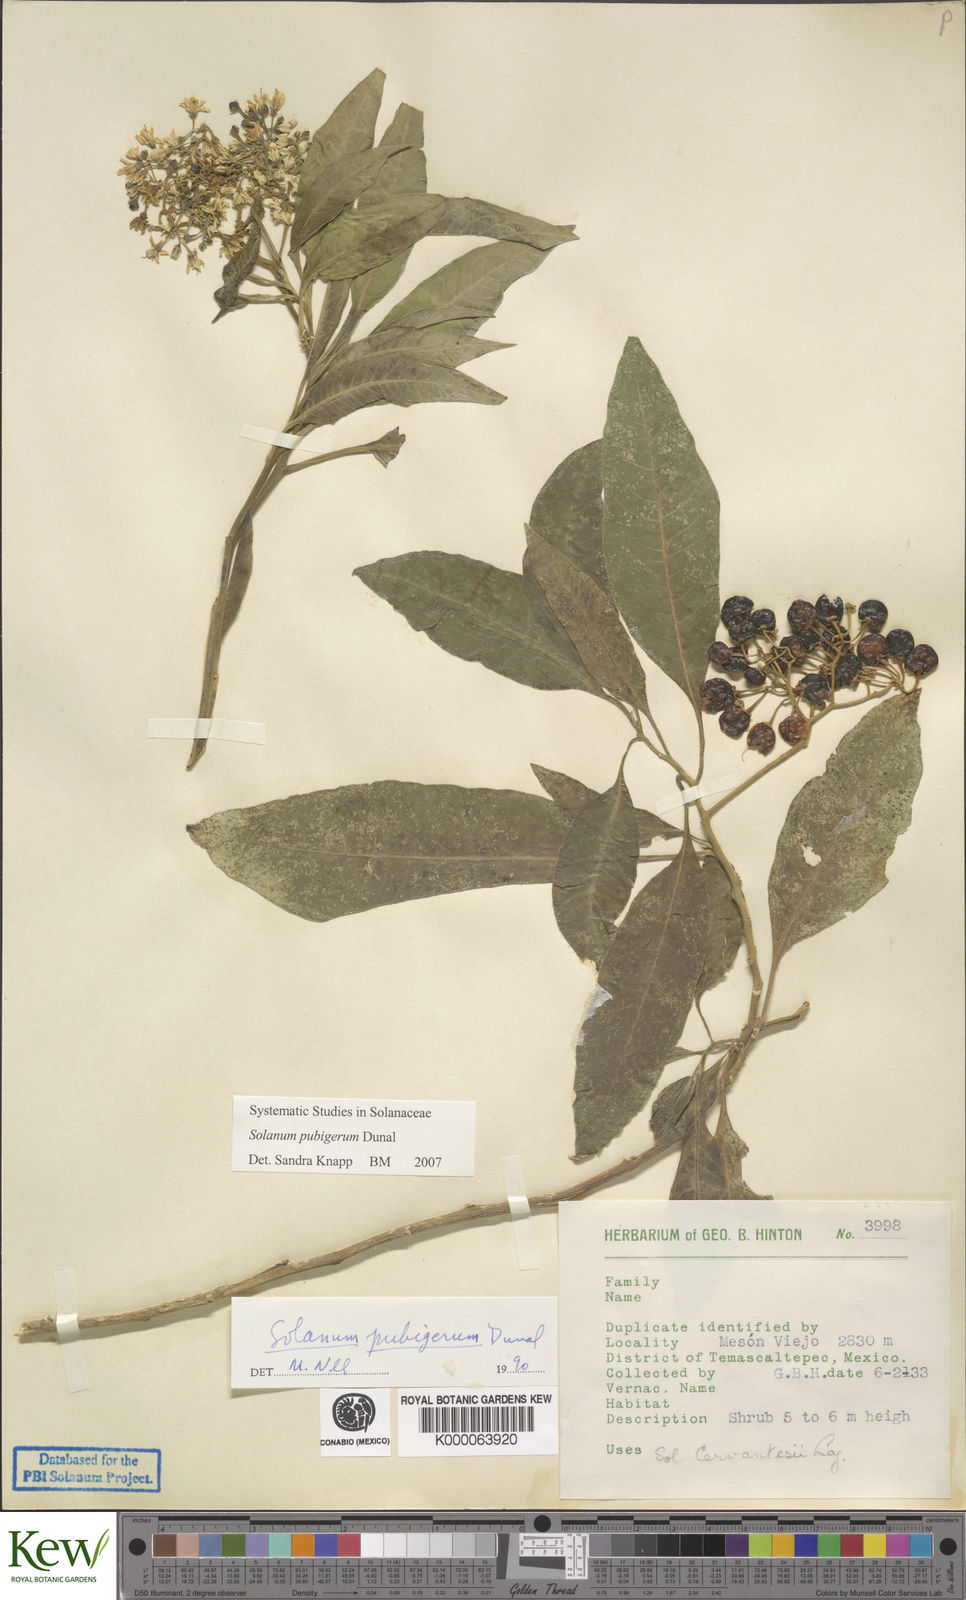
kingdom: Plantae
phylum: Tracheophyta
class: Magnoliopsida
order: Solanales
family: Solanaceae
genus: Solanum
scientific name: Solanum pubigerum
